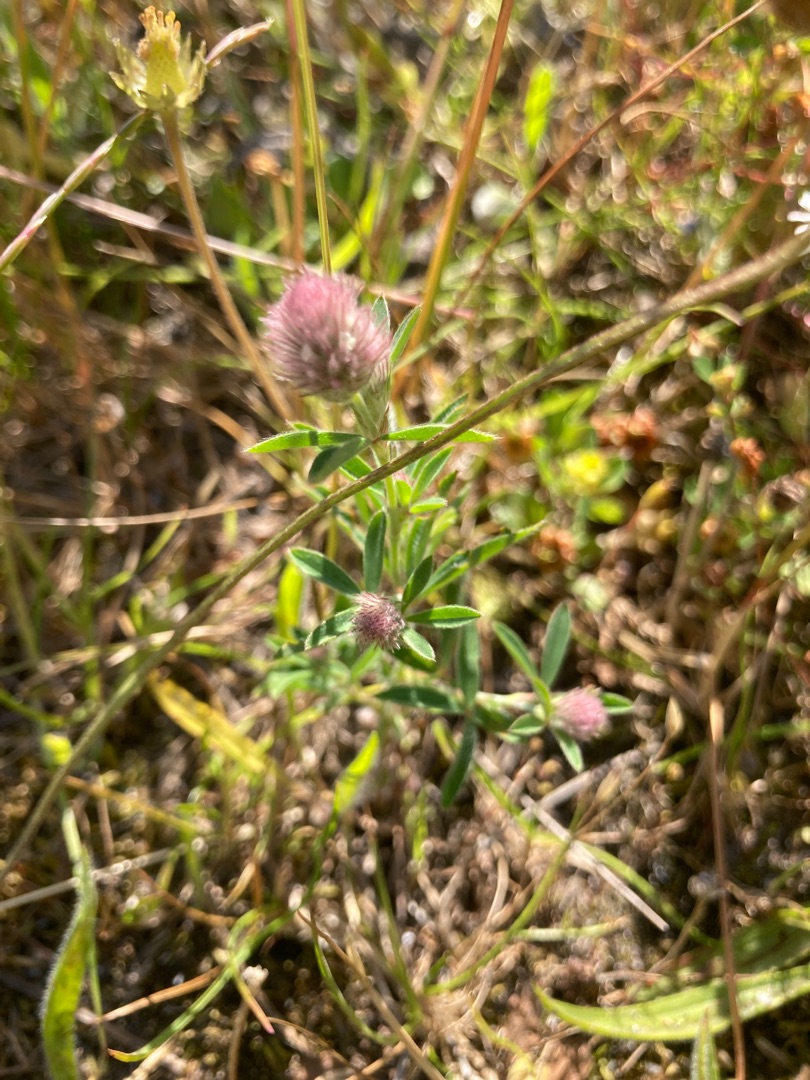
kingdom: Plantae
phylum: Tracheophyta
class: Magnoliopsida
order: Fabales
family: Fabaceae
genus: Trifolium
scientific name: Trifolium arvense
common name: Hare-kløver
